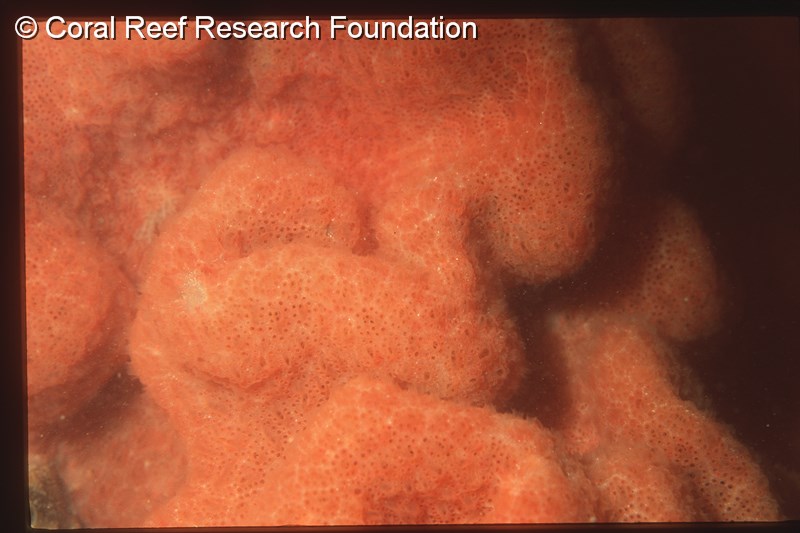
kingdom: Animalia
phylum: Chordata
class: Ascidiacea
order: Aplousobranchia
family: Polyclinidae
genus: Aplidium
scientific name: Aplidium
